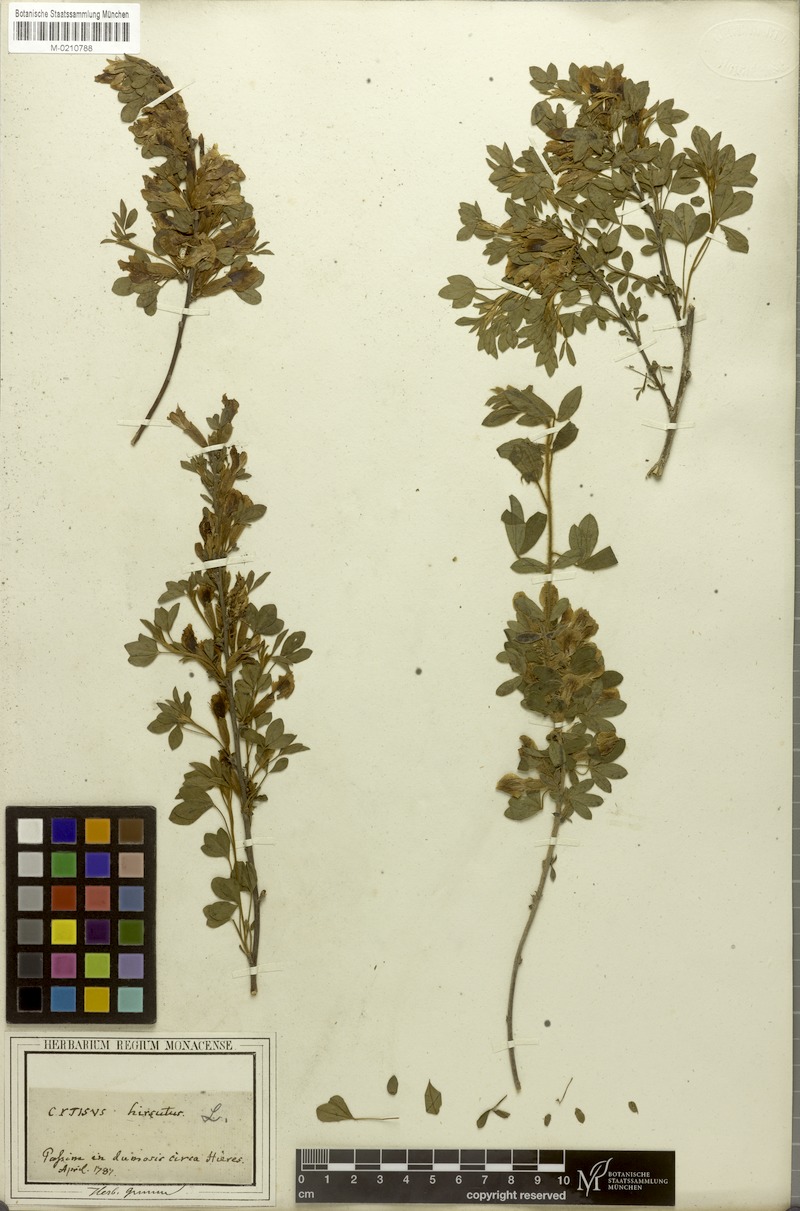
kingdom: Plantae
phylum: Tracheophyta
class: Magnoliopsida
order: Fabales
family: Fabaceae
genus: Chamaecytisus
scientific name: Chamaecytisus hirsutus
